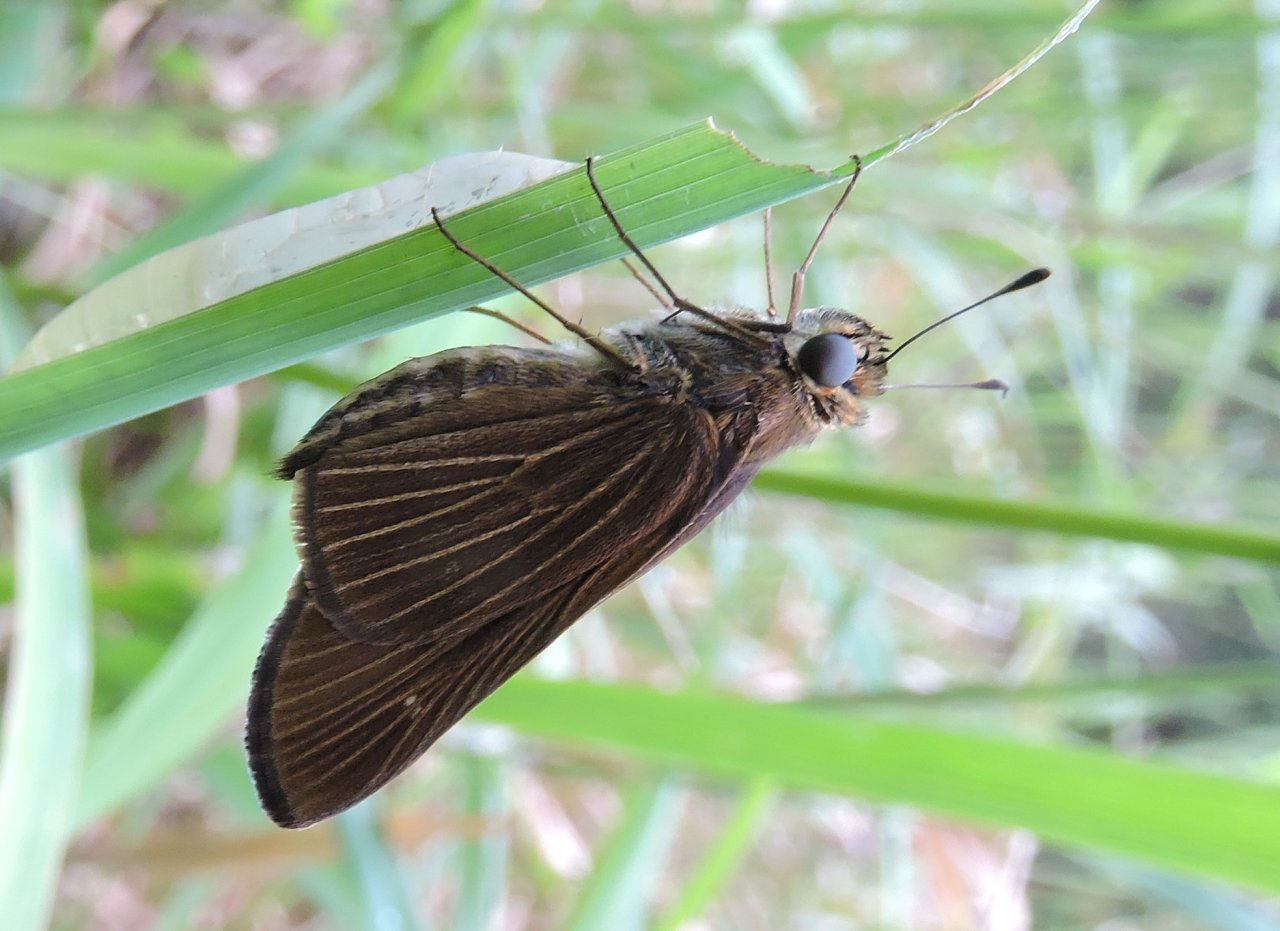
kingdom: Animalia
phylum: Arthropoda
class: Insecta
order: Lepidoptera
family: Hesperiidae
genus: Panoquina
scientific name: Panoquina ocola
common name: Ocola Skipper
